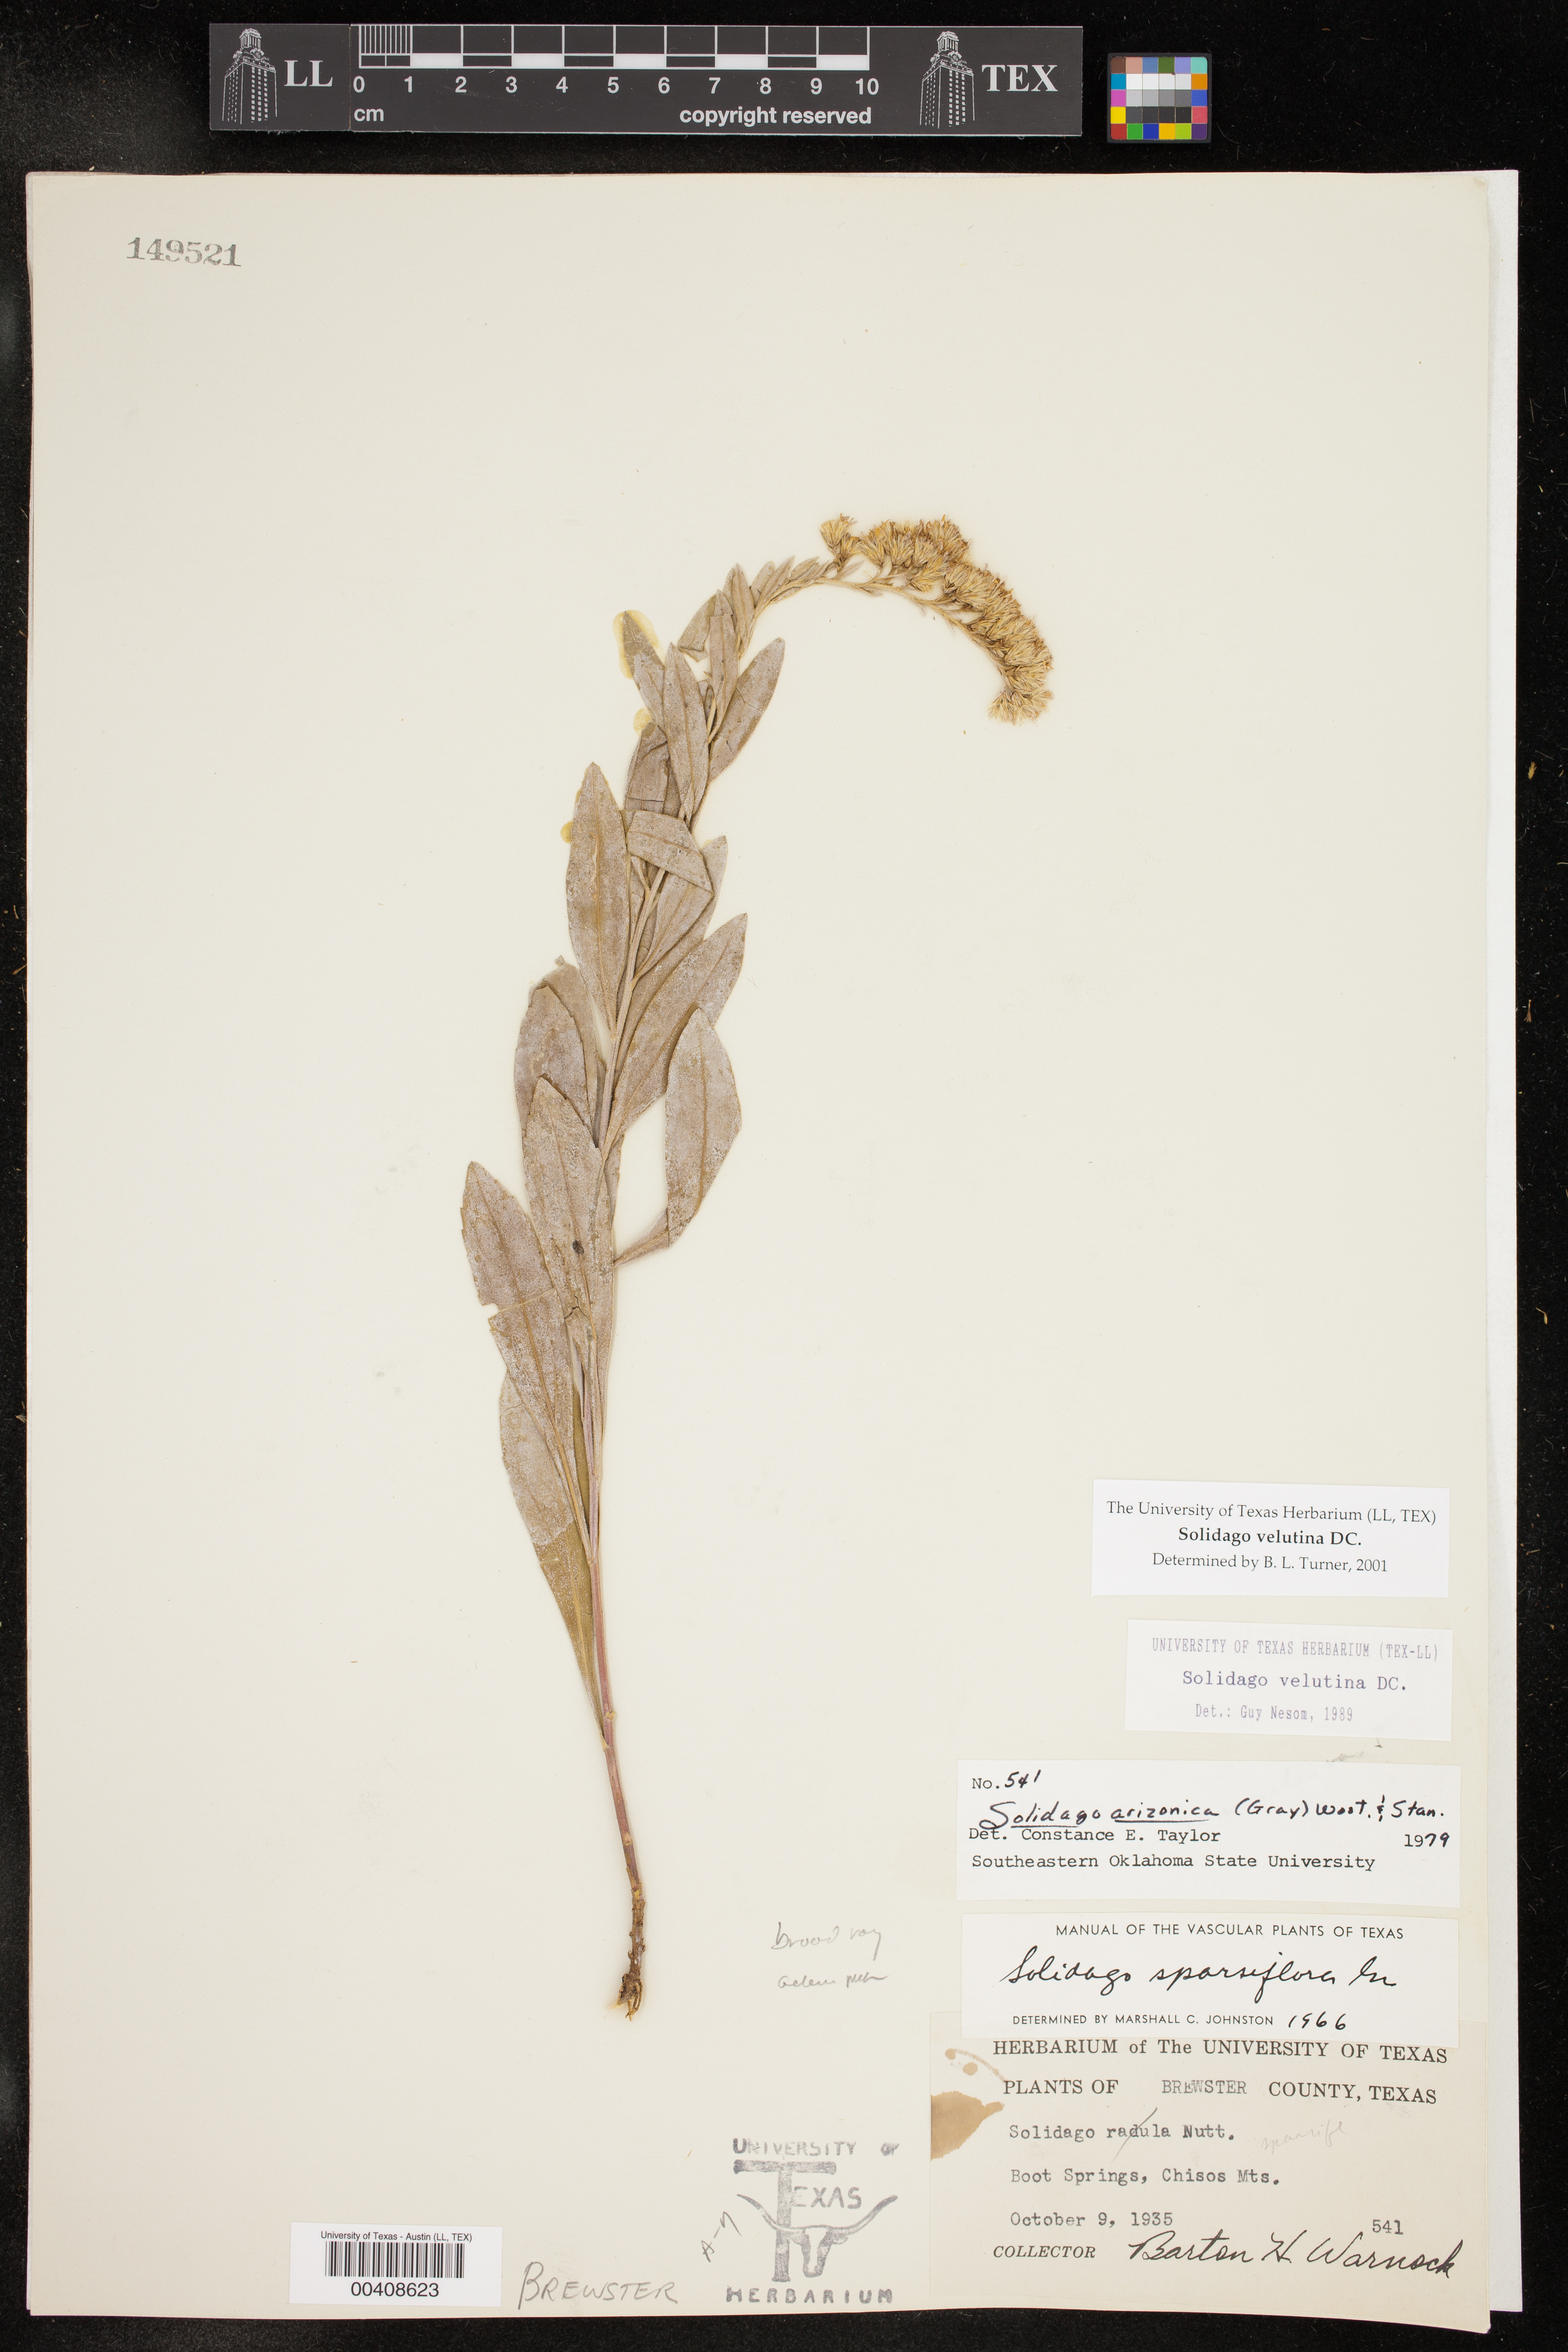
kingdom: Plantae
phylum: Tracheophyta
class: Magnoliopsida
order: Asterales
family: Asteraceae
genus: Solidago
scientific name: Solidago velutina
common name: Three-nerve goldenrod
